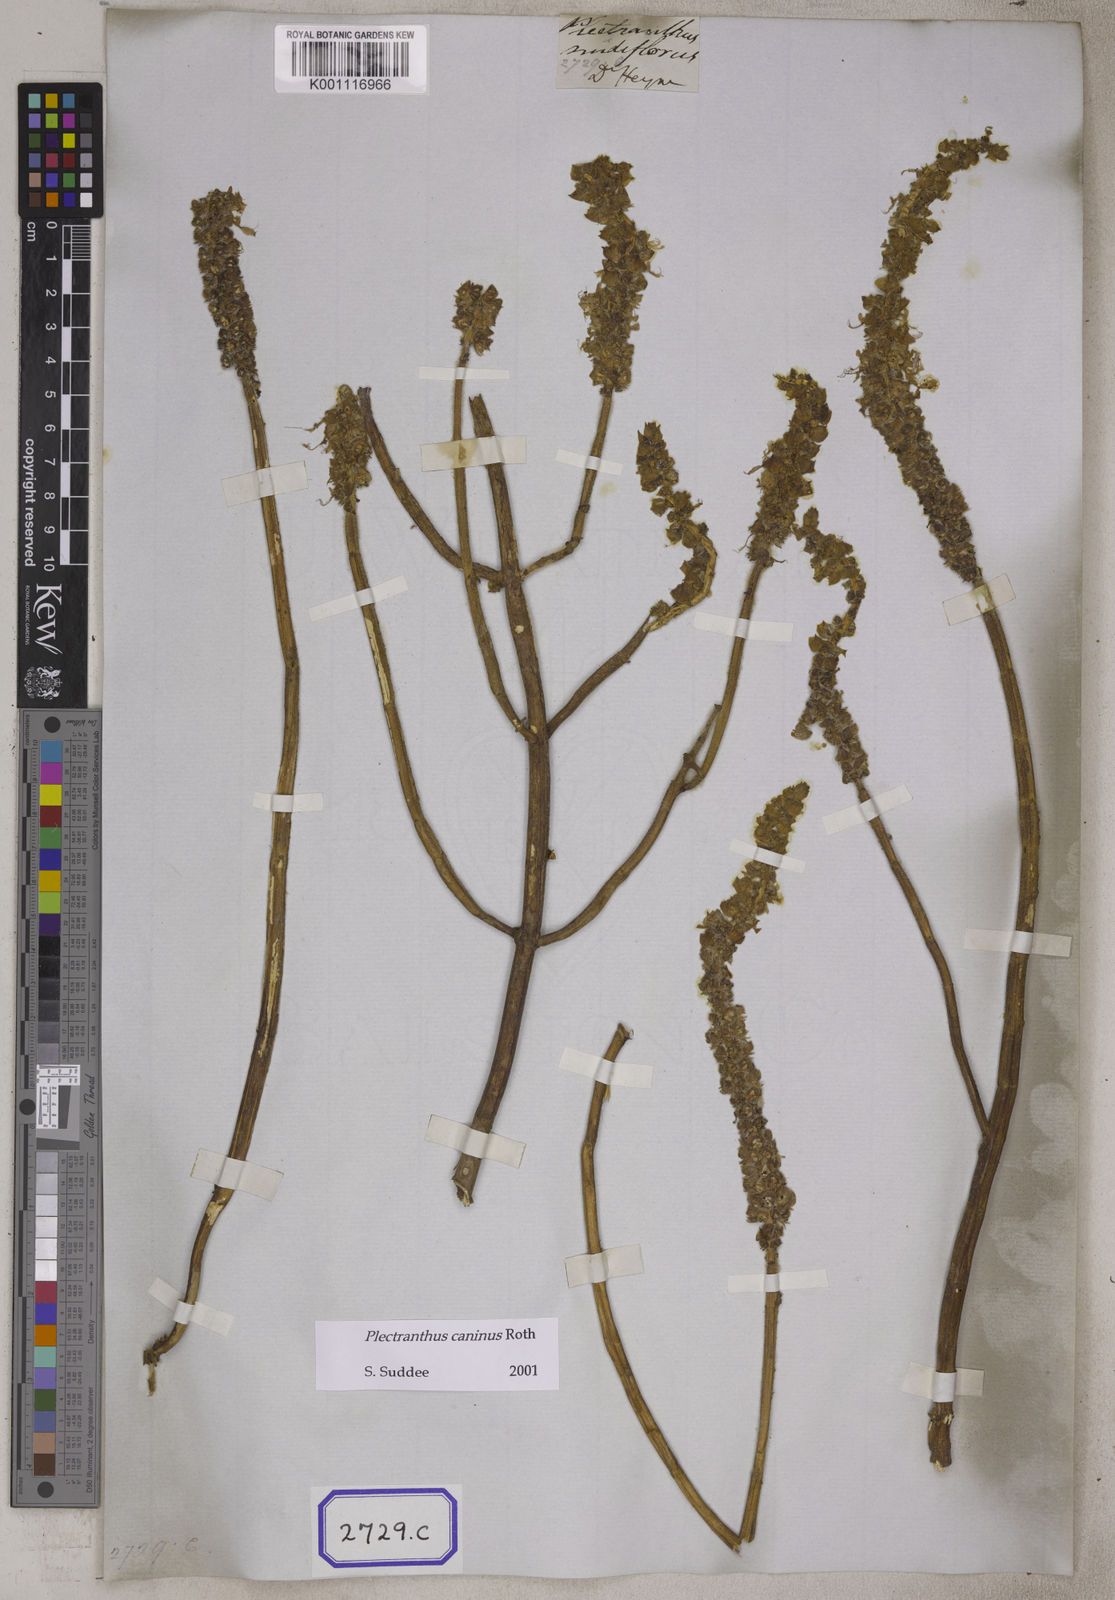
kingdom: Plantae
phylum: Tracheophyta
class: Magnoliopsida
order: Lamiales
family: Lamiaceae
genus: Coleus
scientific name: Coleus caninus
